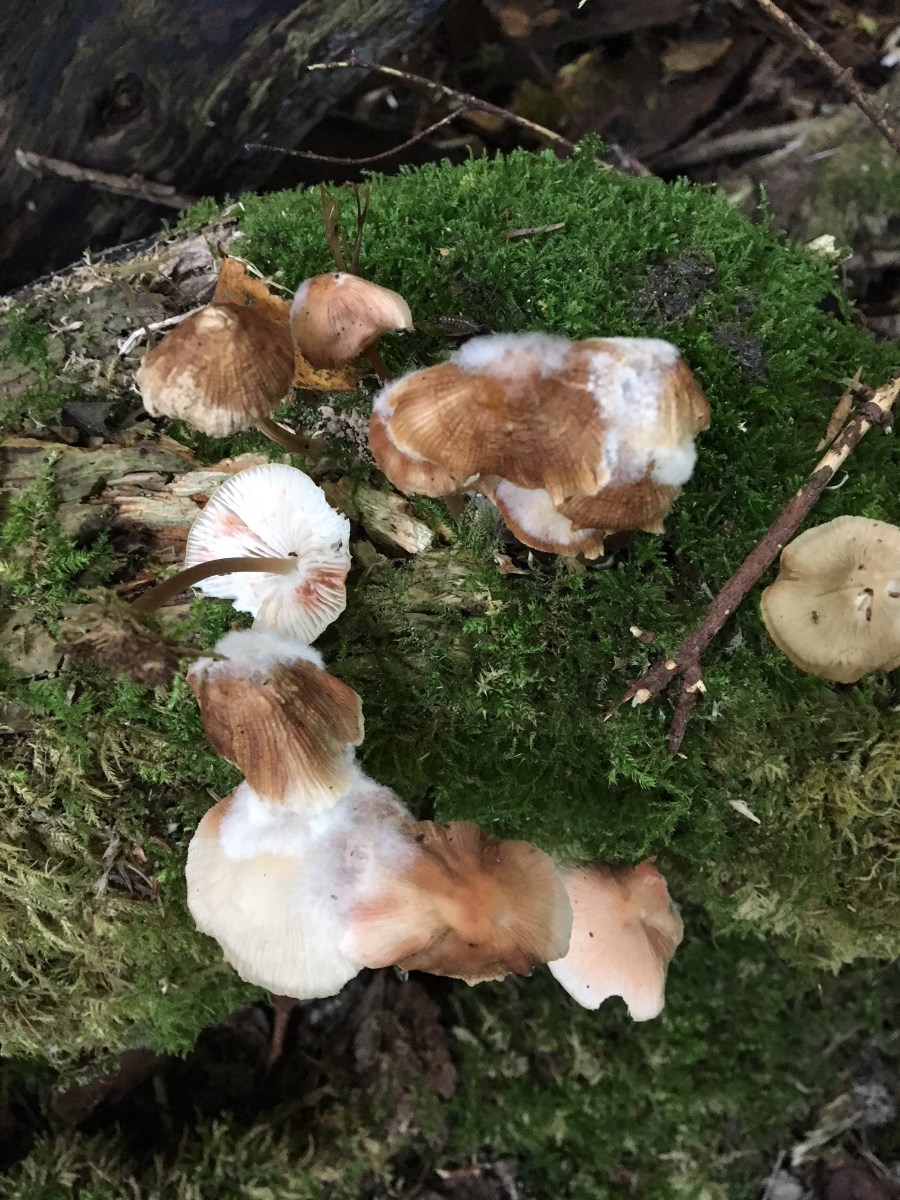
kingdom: Fungi
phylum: Basidiomycota
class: Agaricomycetes
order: Agaricales
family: Mycenaceae
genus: Mycena
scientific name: Mycena
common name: huesvamp
